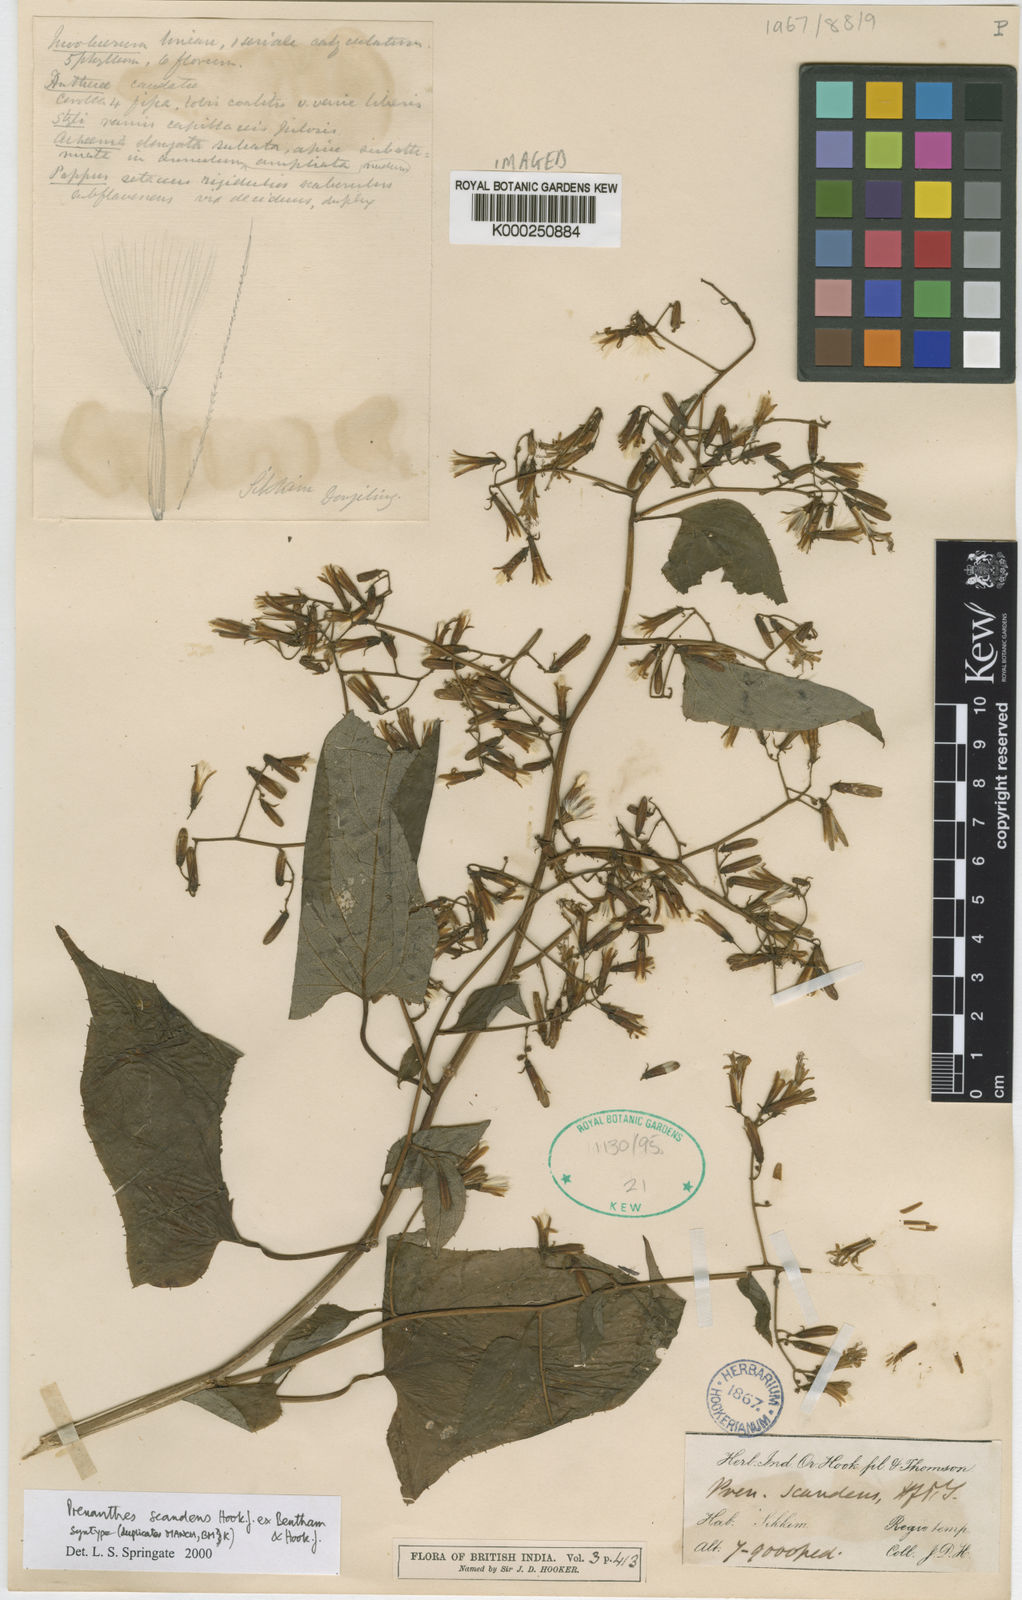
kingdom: Plantae
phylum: Tracheophyta
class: Magnoliopsida
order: Asterales
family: Asteraceae
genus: Notoseris
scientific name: Notoseris scandens
